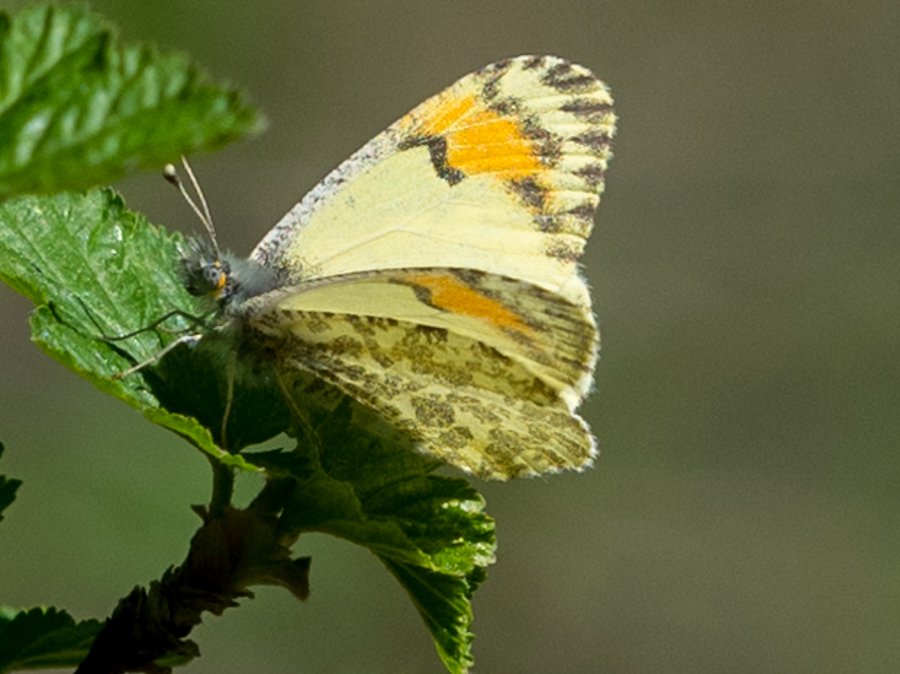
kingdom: Animalia
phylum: Arthropoda
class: Insecta
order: Lepidoptera
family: Pieridae
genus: Anthocharis
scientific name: Anthocharis sara
